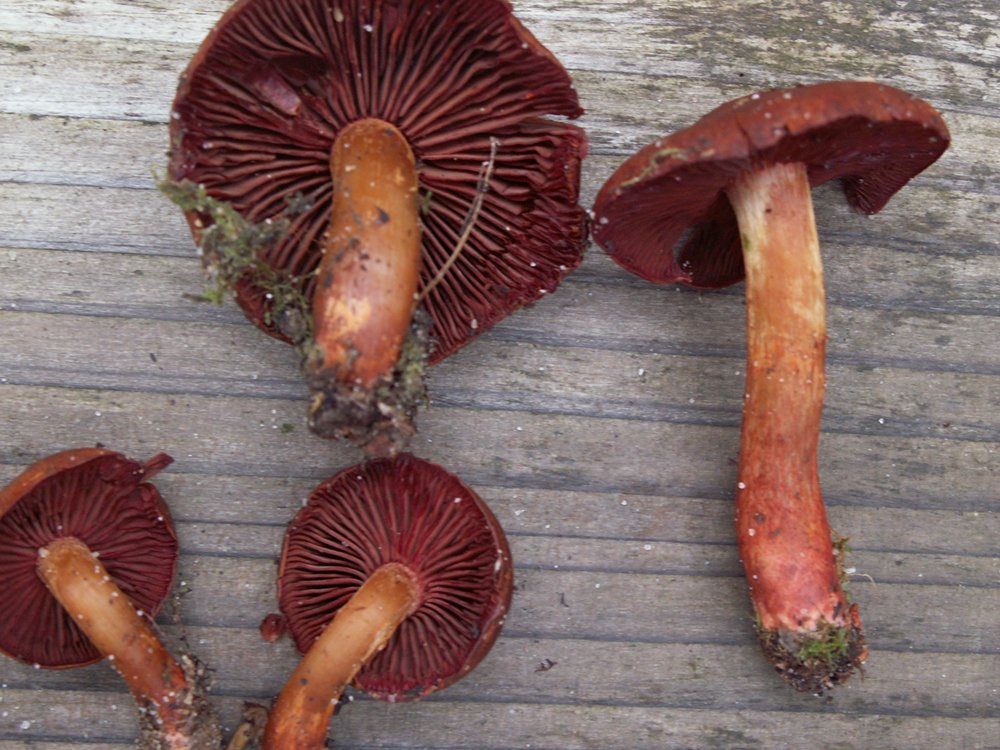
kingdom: Fungi
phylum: Basidiomycota
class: Agaricomycetes
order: Agaricales
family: Cortinariaceae
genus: Cortinarius
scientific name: Cortinarius cinnabarinus
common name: cinnober-slørhat
